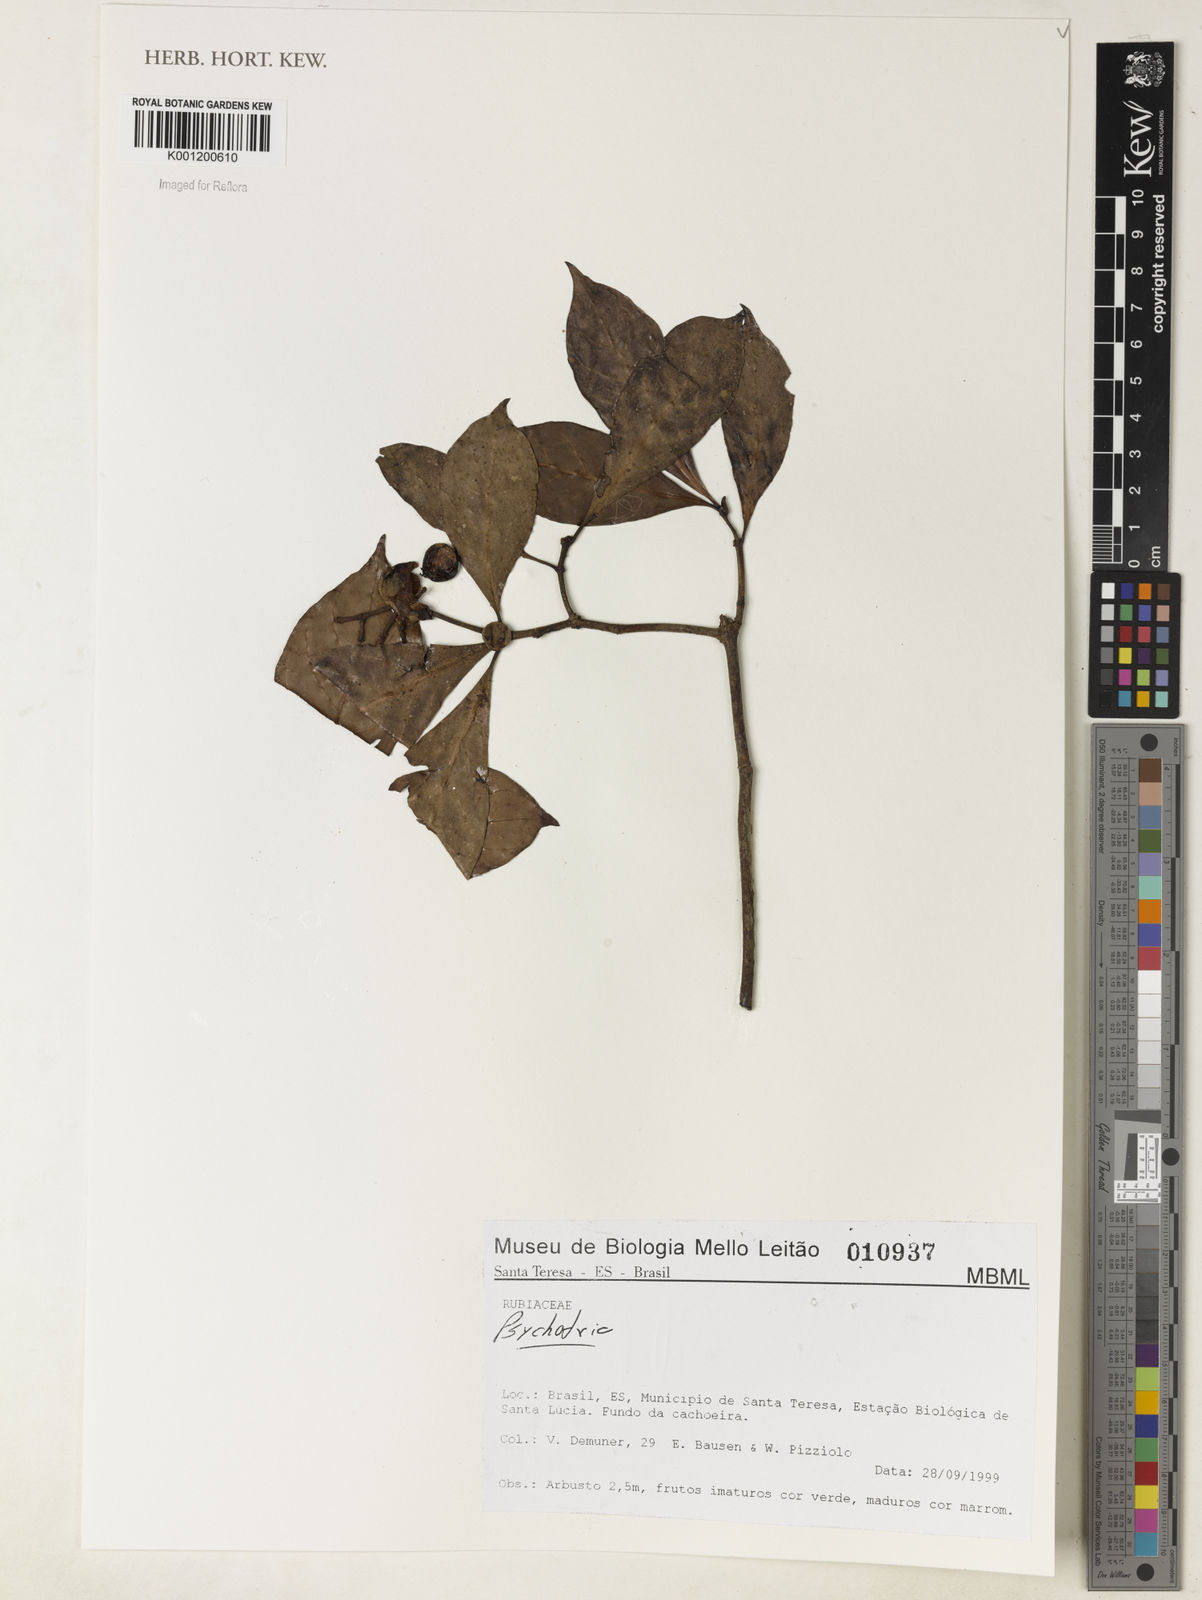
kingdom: Plantae
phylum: Tracheophyta
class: Magnoliopsida
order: Gentianales
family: Rubiaceae
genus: Psychotria
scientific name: Psychotria
